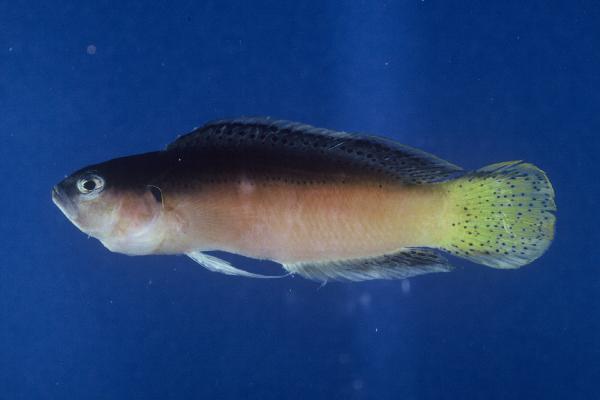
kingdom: Animalia
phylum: Chordata
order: Perciformes
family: Pseudochromidae
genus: Pseudochromis
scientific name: Pseudochromis melas
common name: Dark dottyback
